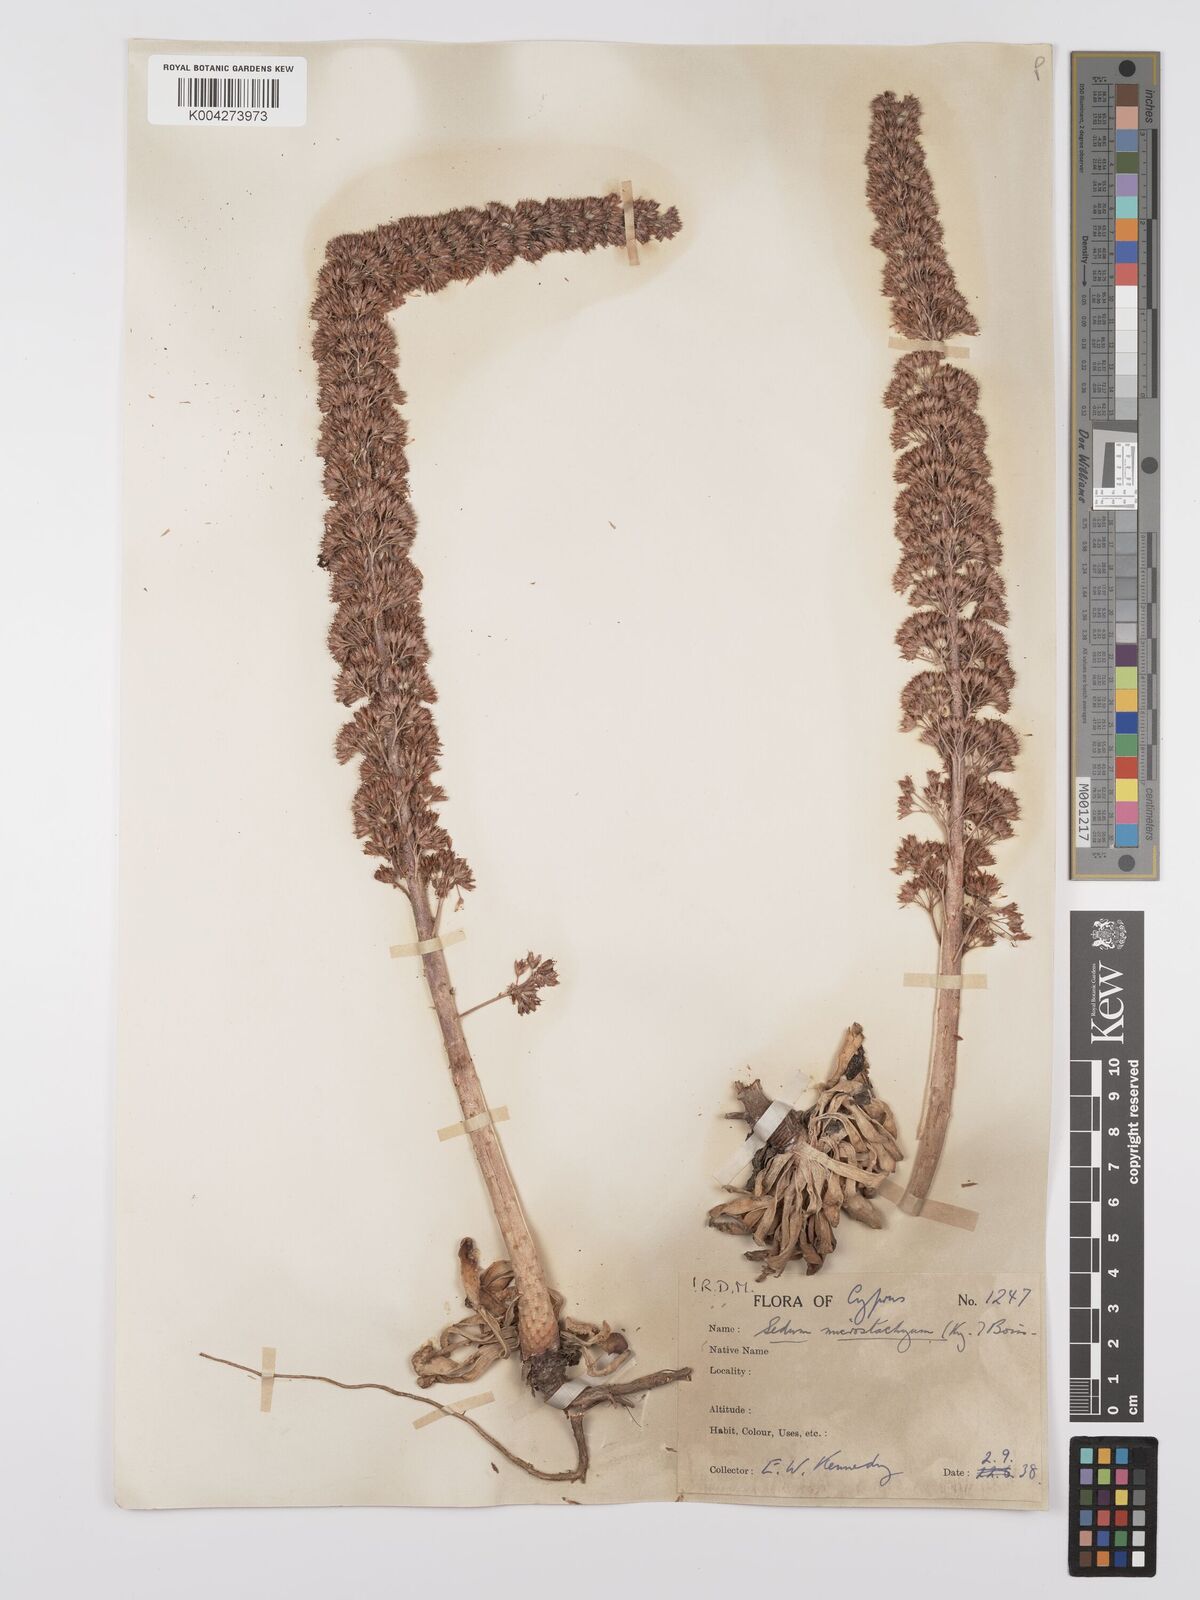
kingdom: Plantae
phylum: Tracheophyta
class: Magnoliopsida
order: Saxifragales
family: Crassulaceae
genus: Sedum
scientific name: Sedum microstachyum
